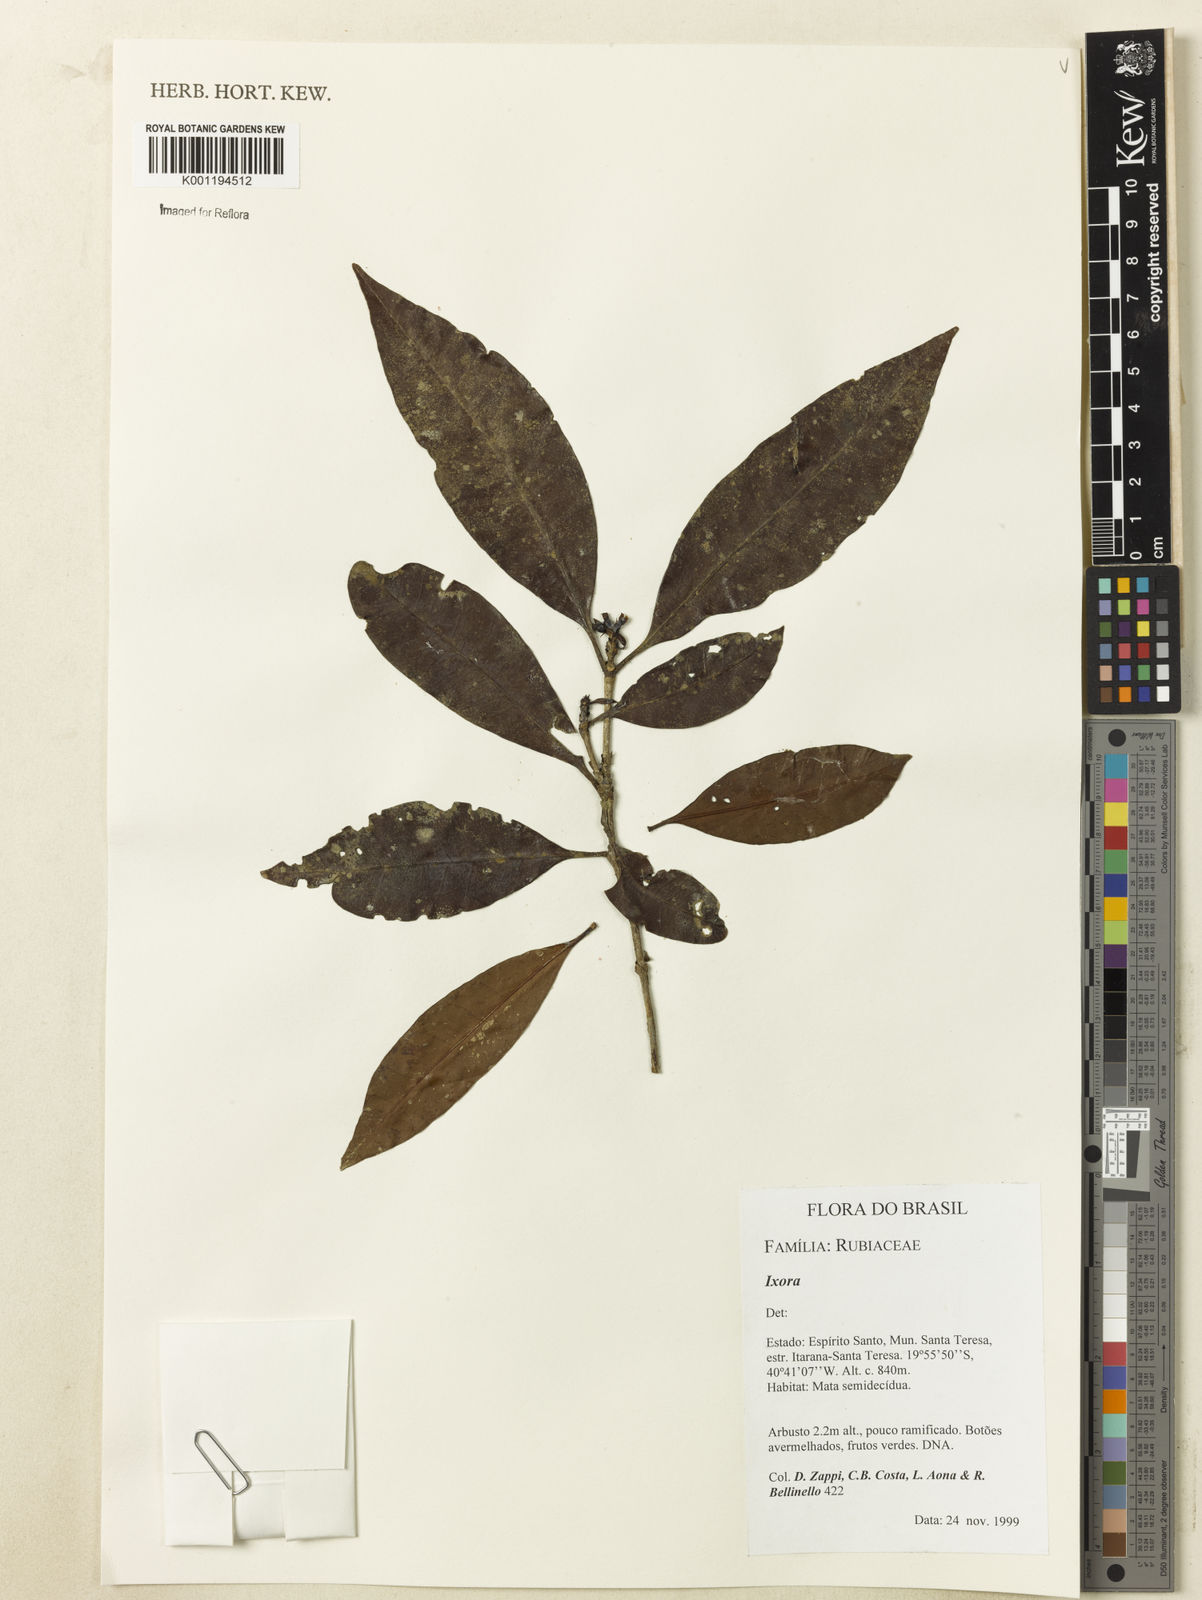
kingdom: Plantae
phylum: Tracheophyta
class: Magnoliopsida
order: Gentianales
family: Rubiaceae
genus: Ixora
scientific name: Ixora
